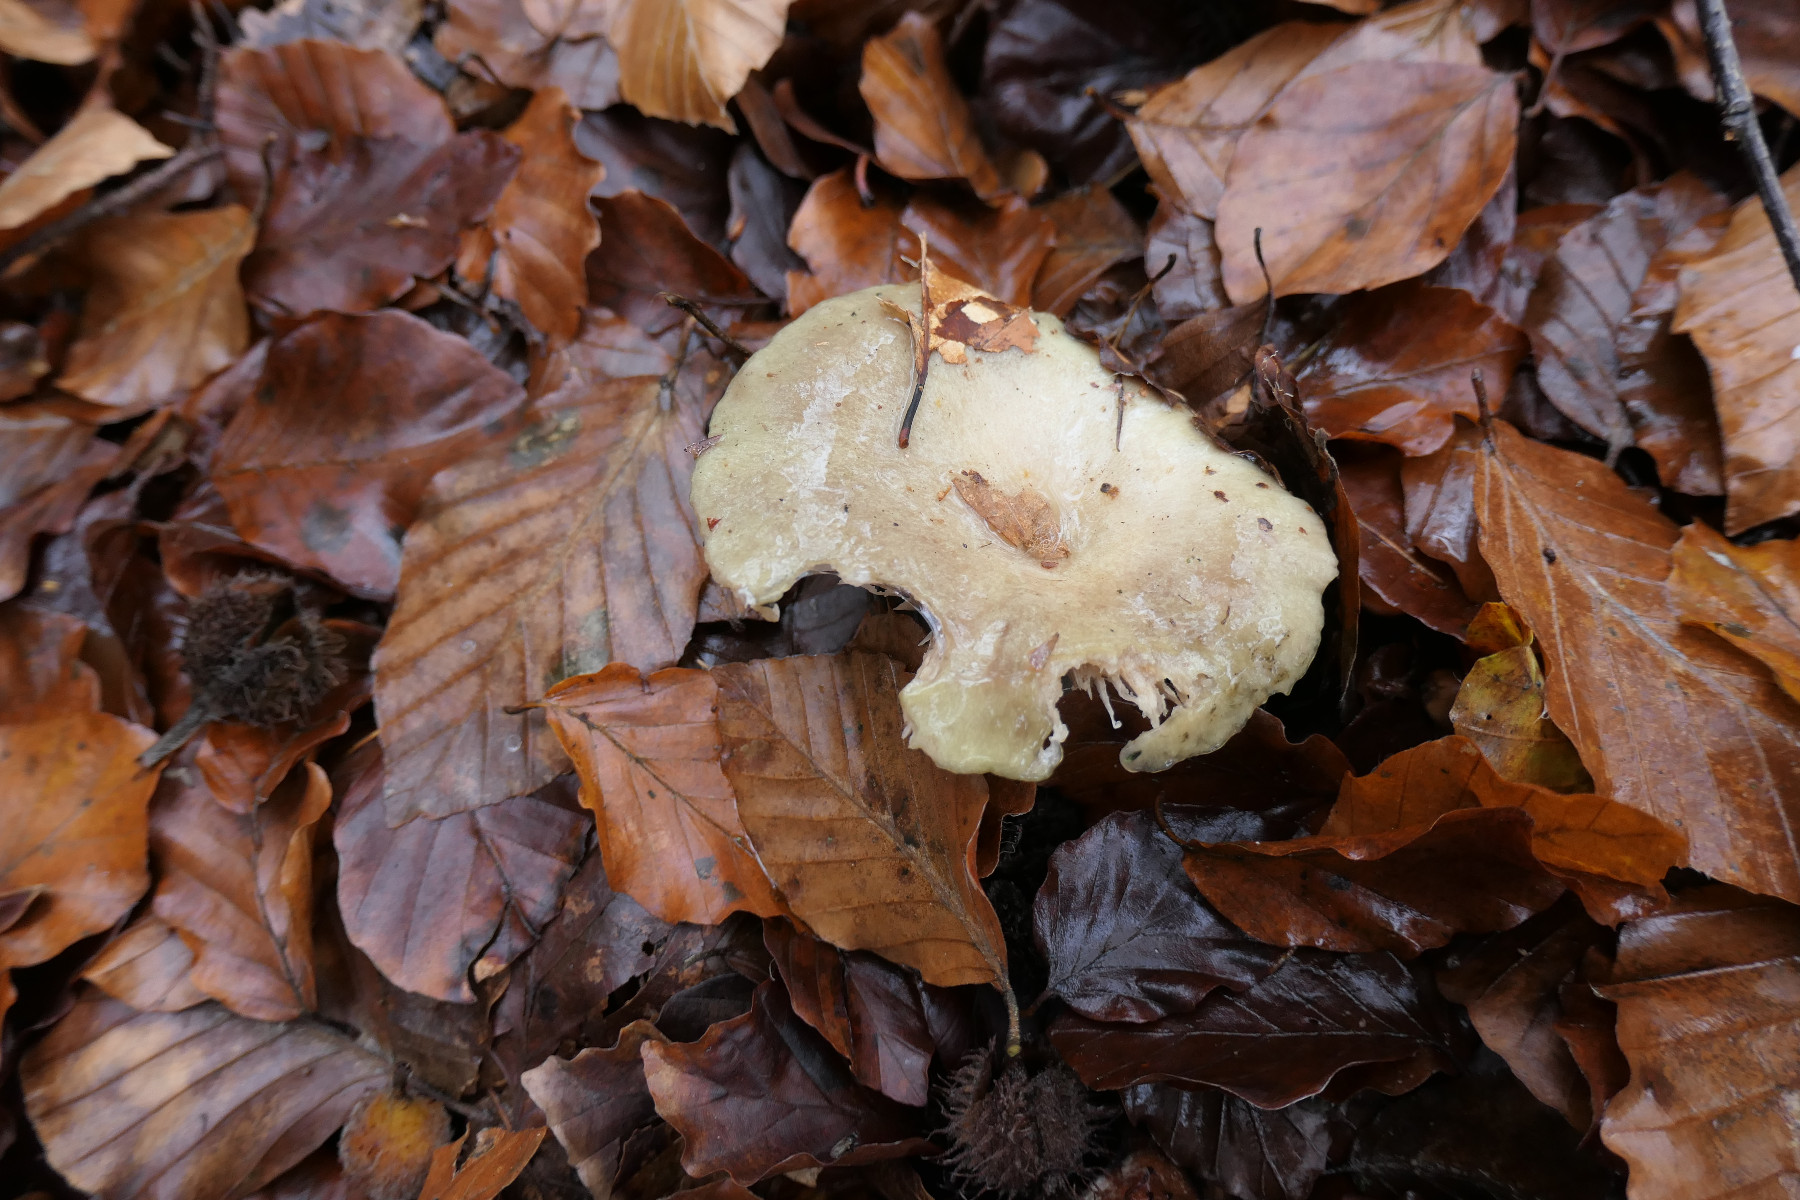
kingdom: Fungi
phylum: Basidiomycota
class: Agaricomycetes
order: Russulales
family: Russulaceae
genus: Lactarius
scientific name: Lactarius blennius
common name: dråbeplettet mælkehat
